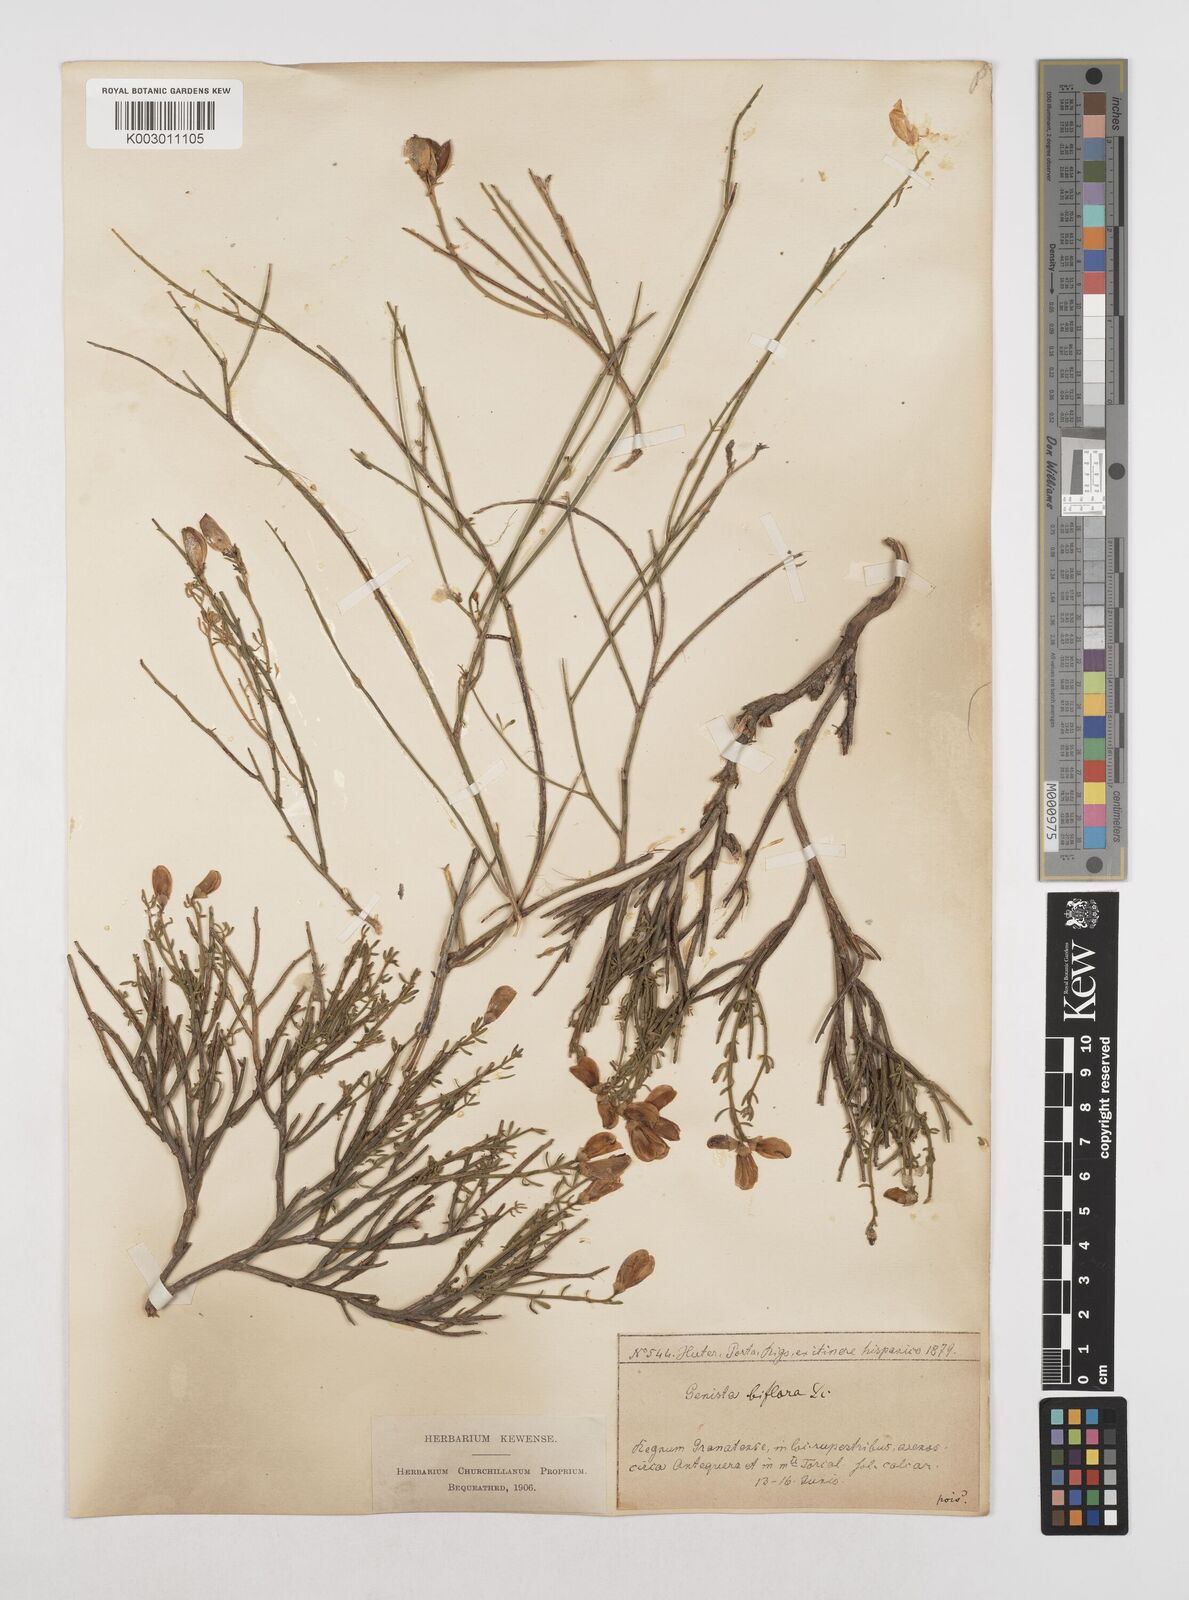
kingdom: Plantae
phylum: Tracheophyta
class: Magnoliopsida
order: Fabales
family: Fabaceae
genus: Cytisus
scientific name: Cytisus fontanesii
